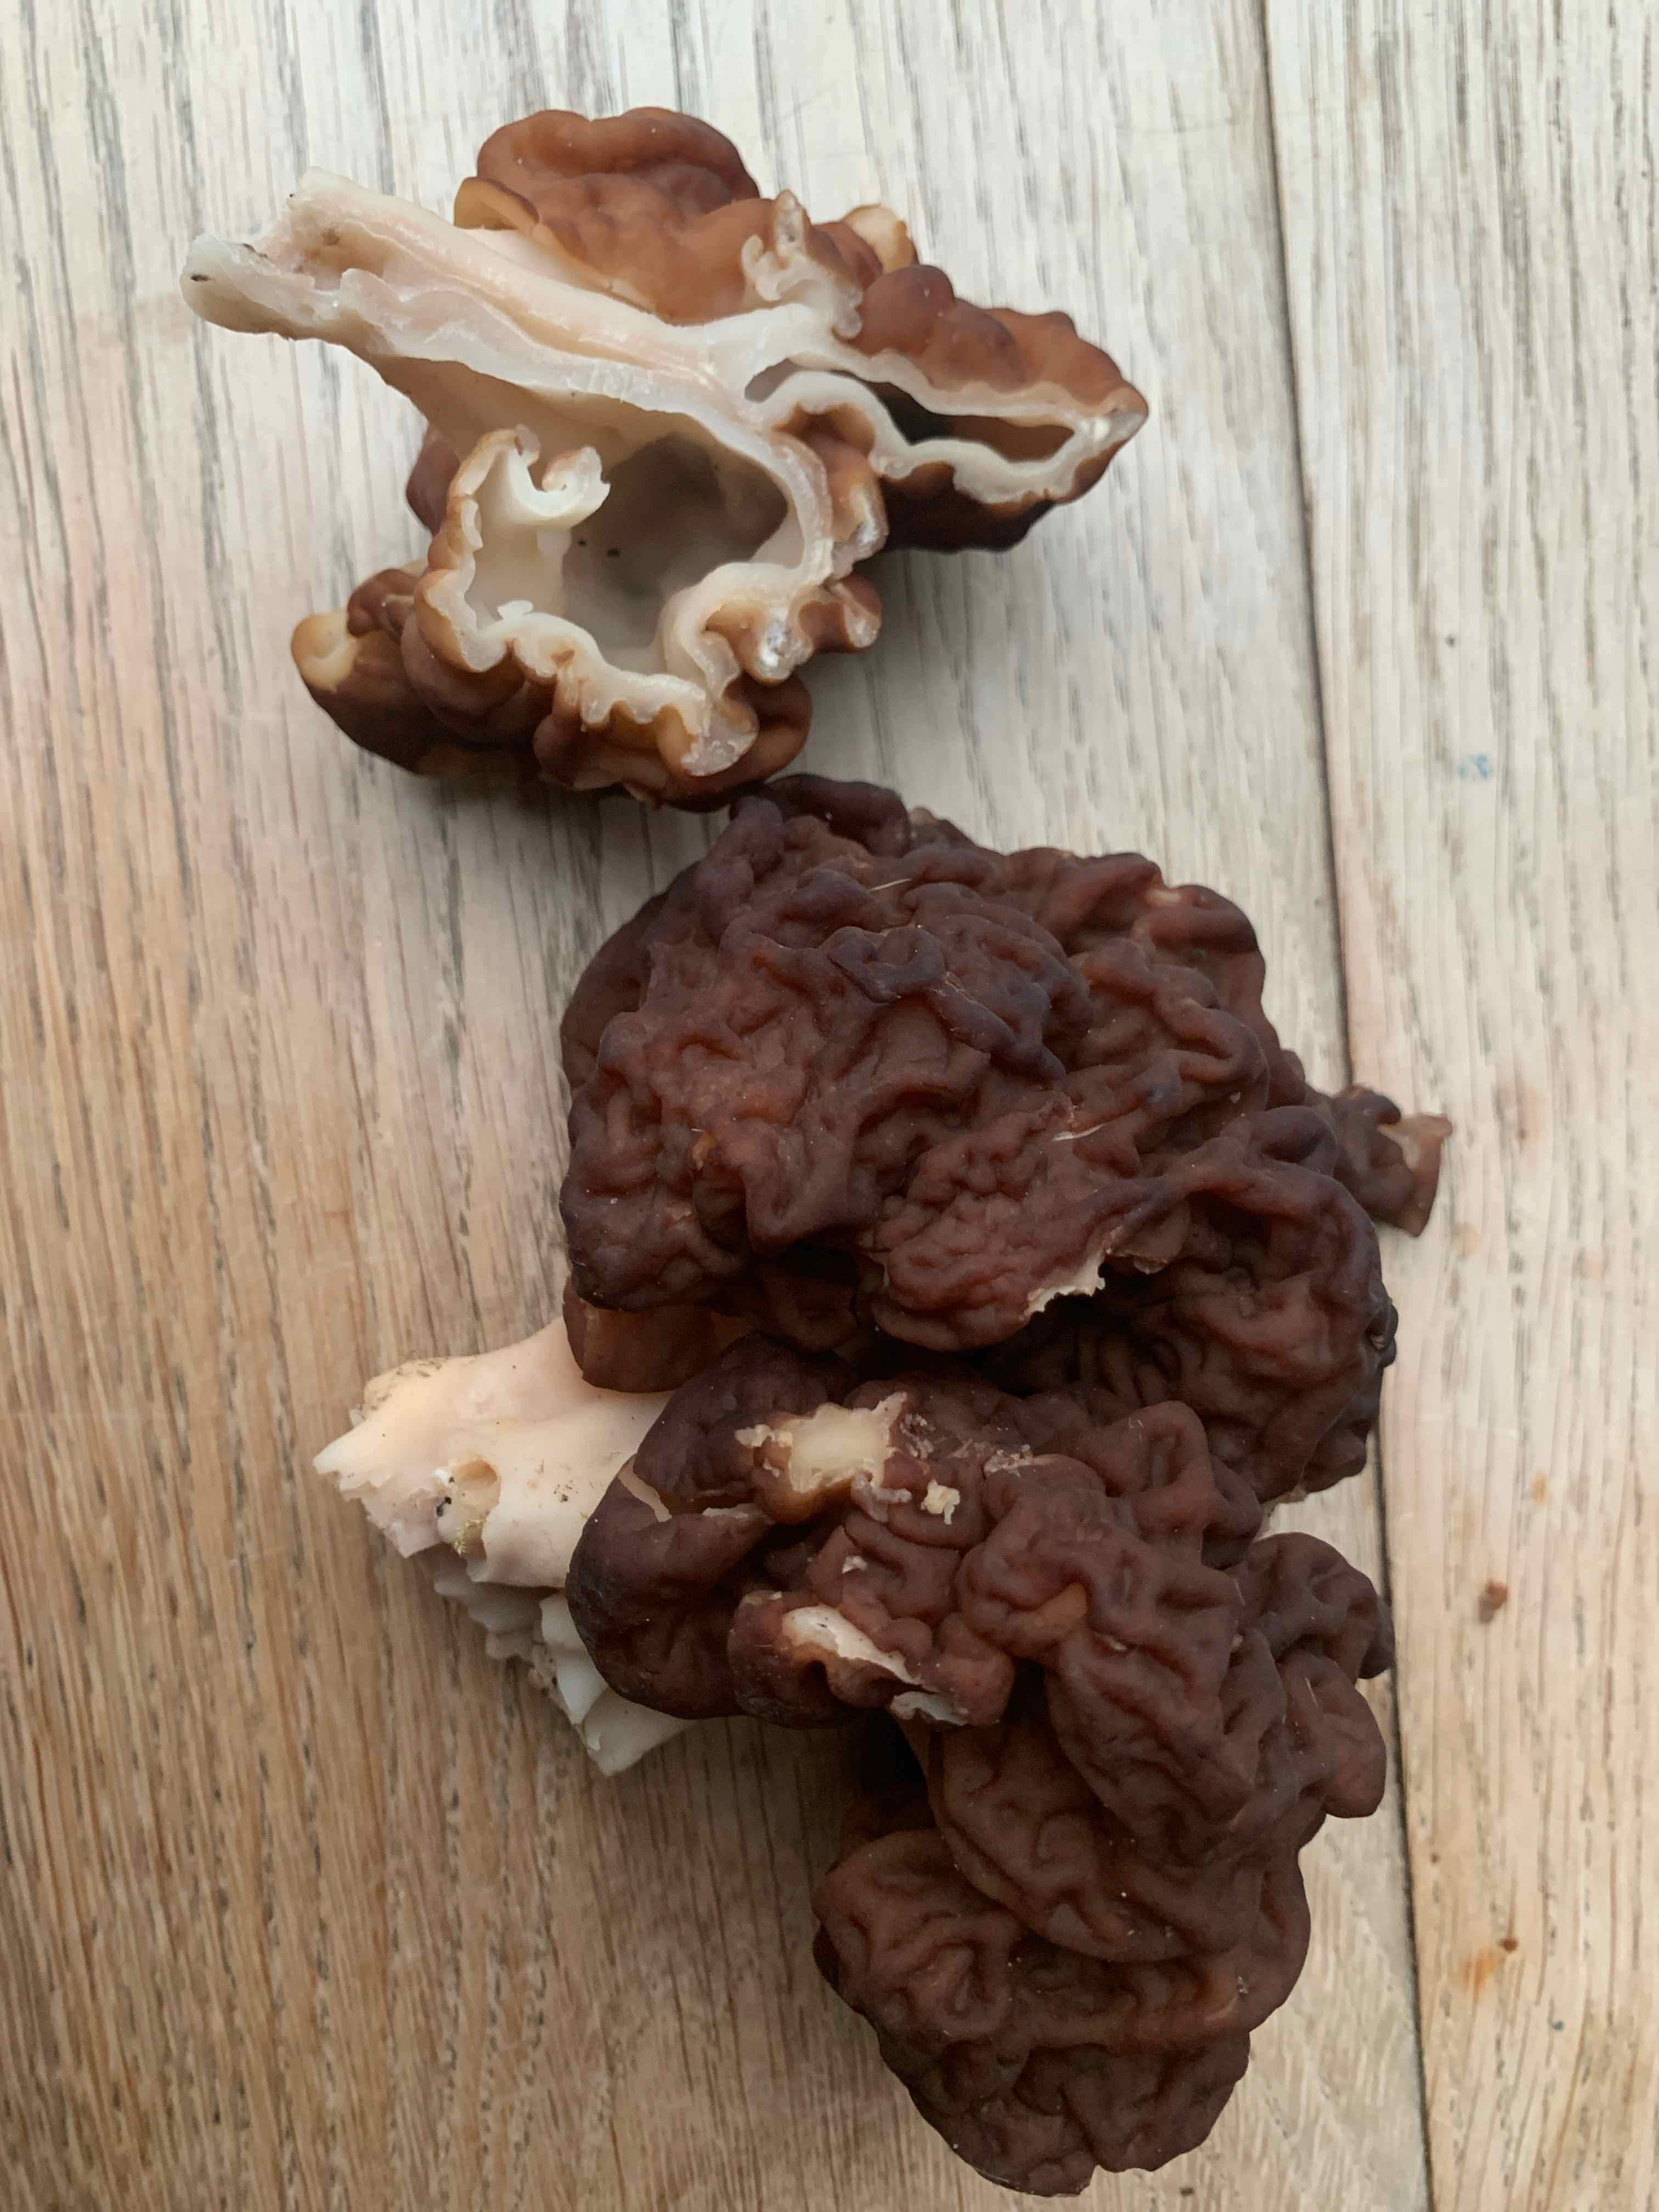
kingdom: Fungi
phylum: Ascomycota
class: Pezizomycetes
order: Pezizales
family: Discinaceae
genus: Gyromitra
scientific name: Gyromitra esculenta
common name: ægte stenmorkel
